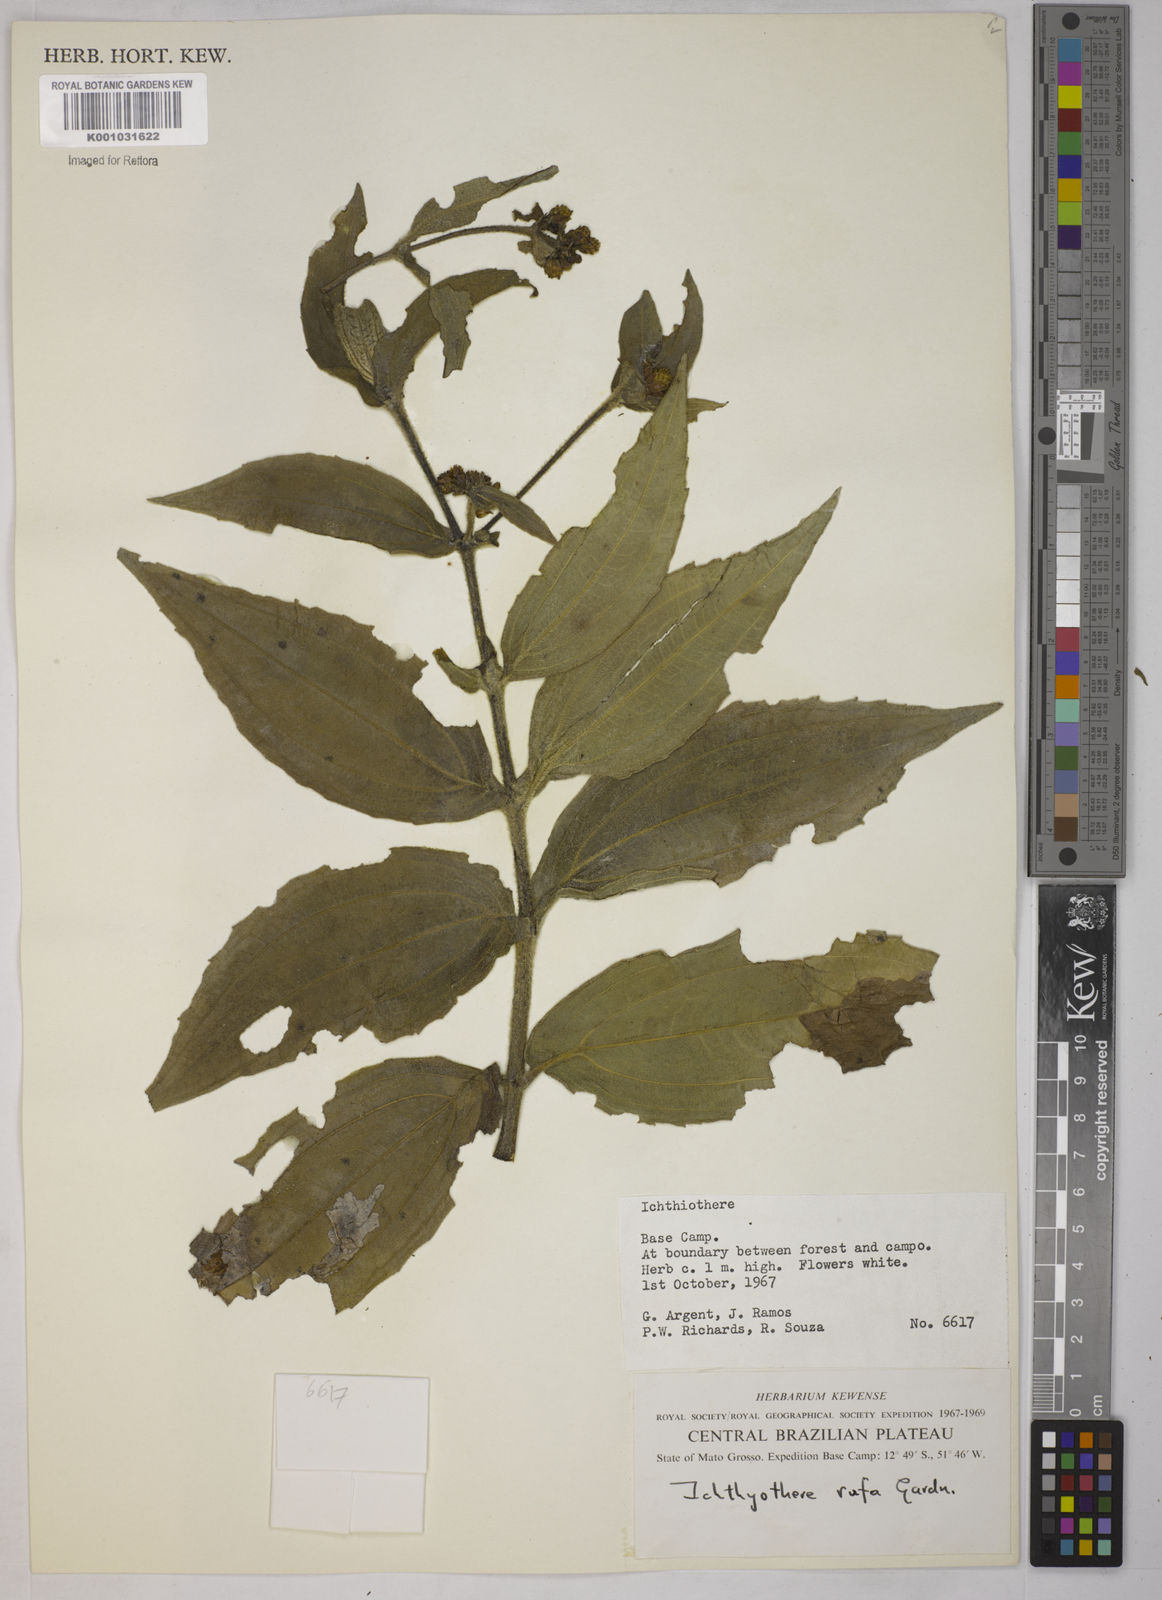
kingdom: Plantae
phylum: Tracheophyta
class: Magnoliopsida
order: Asterales
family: Asteraceae
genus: Ichthyothere
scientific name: Ichthyothere rufa
